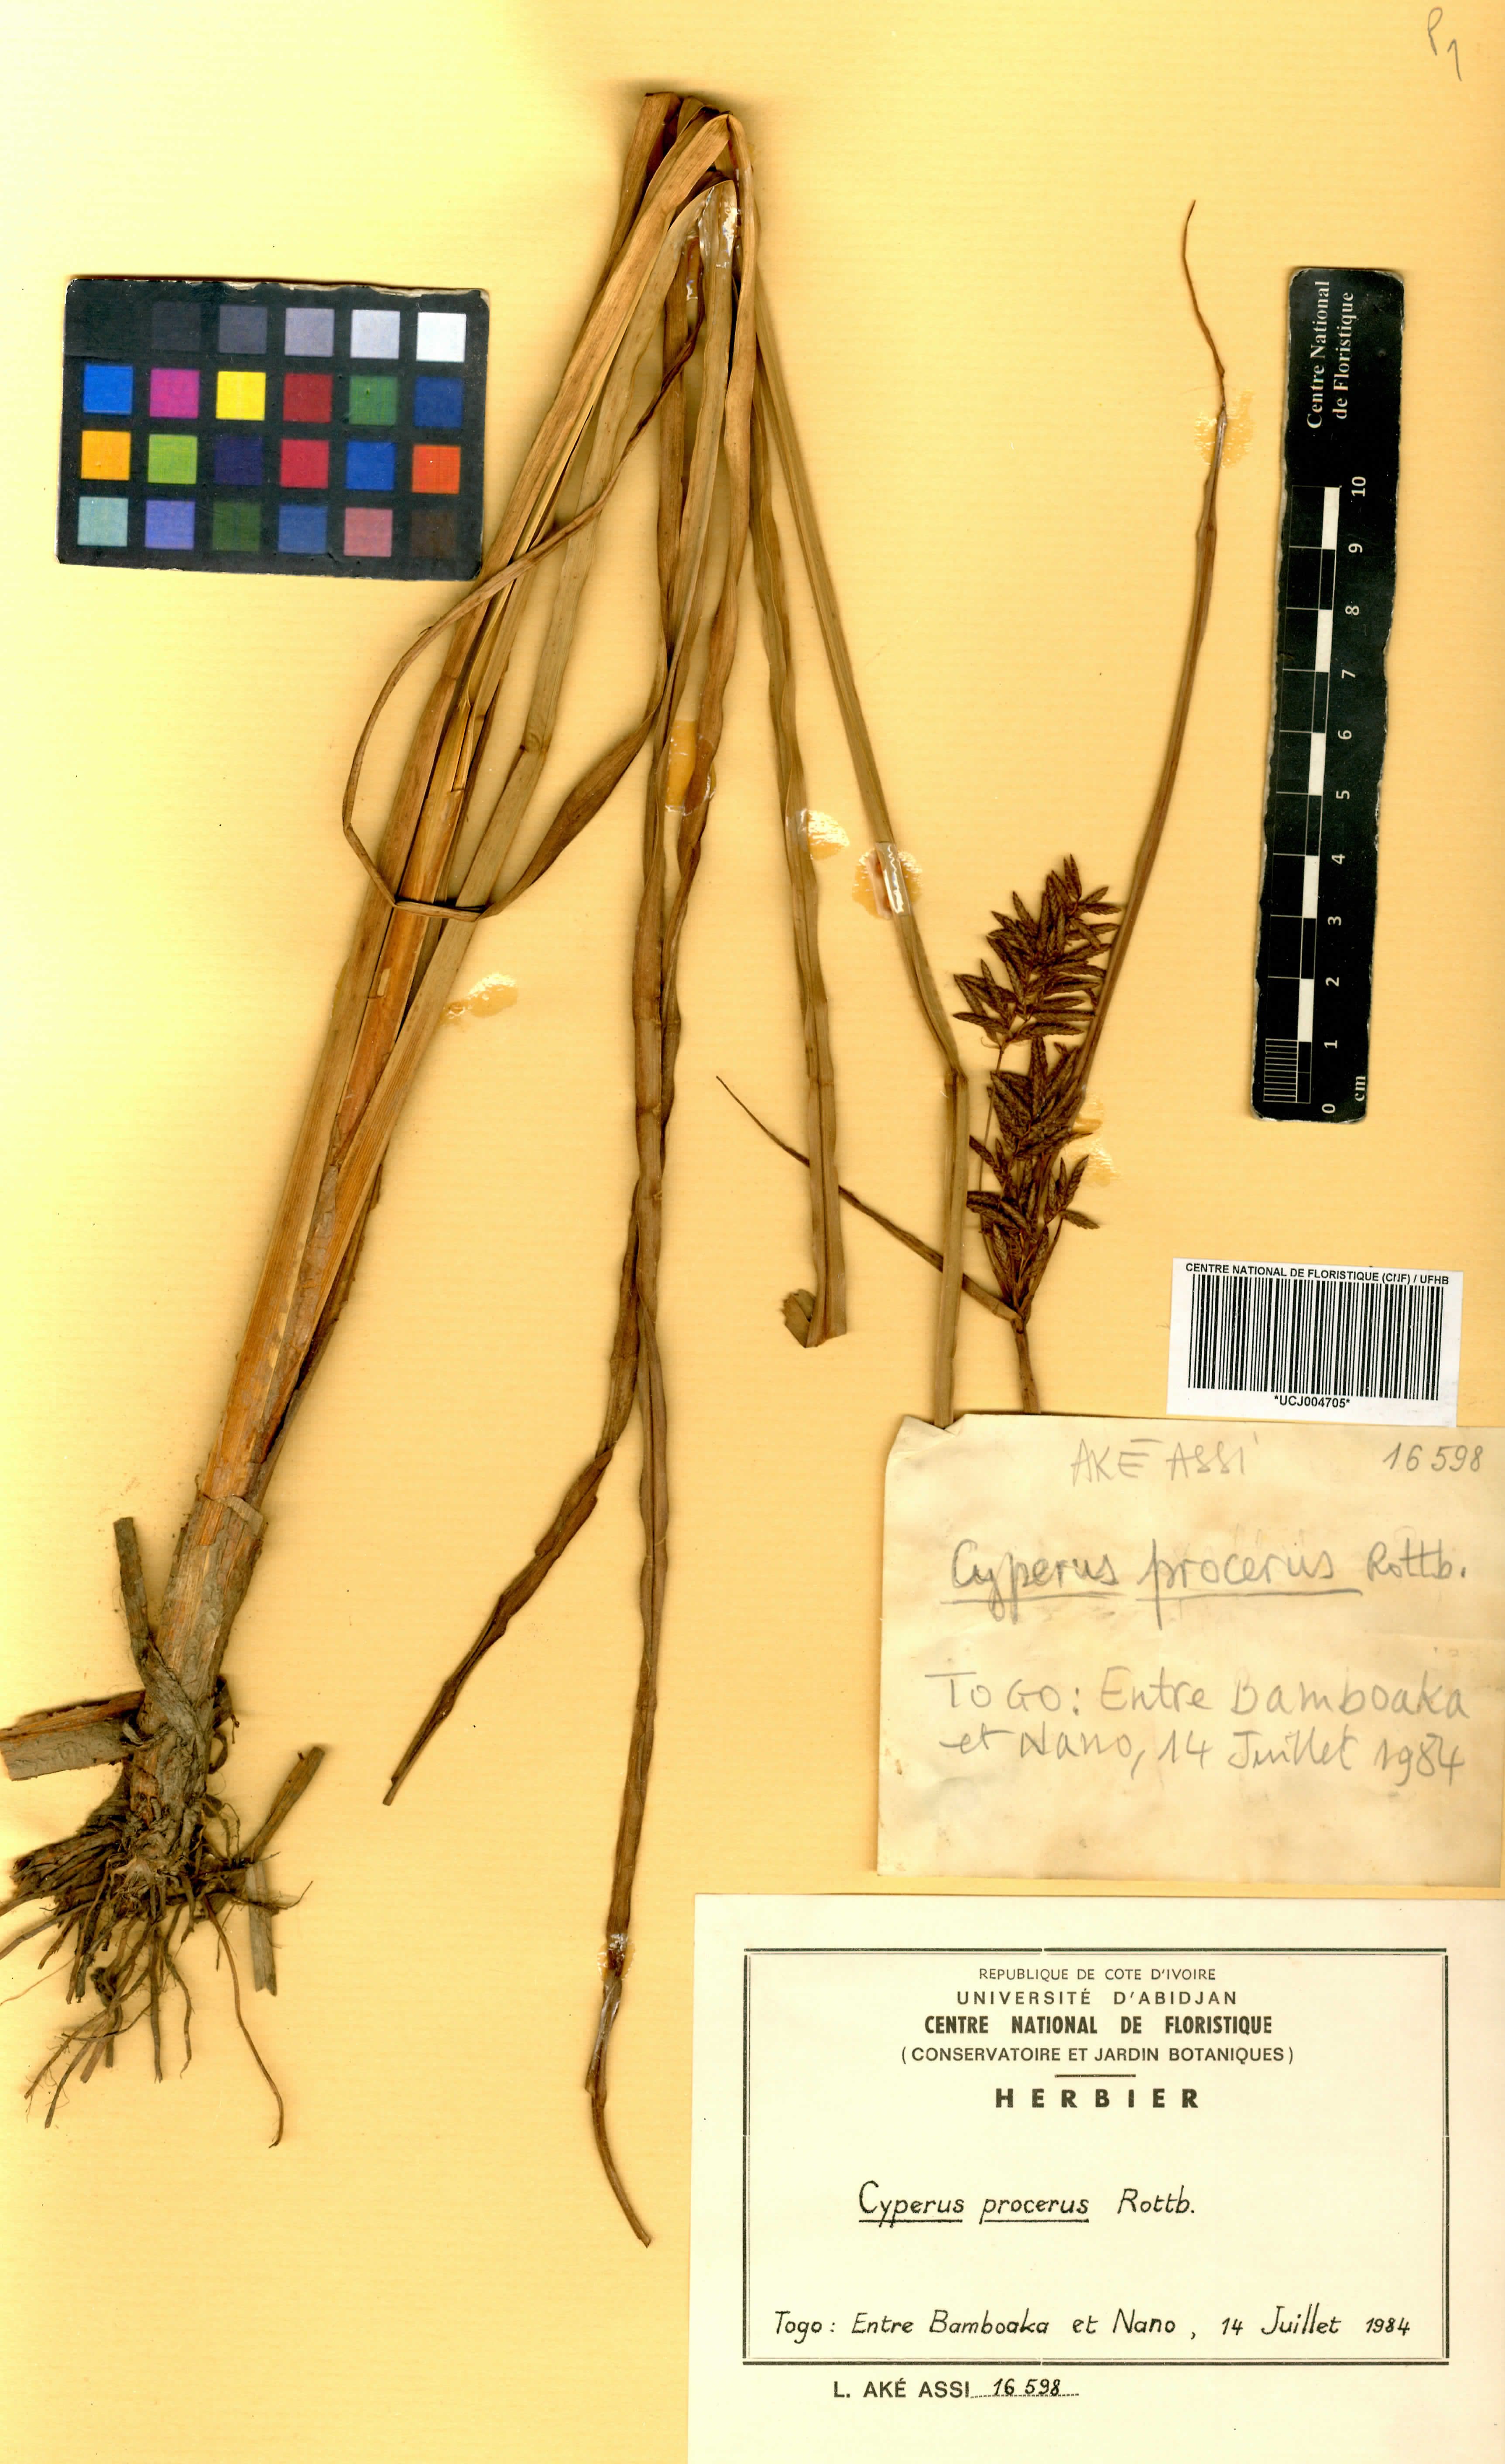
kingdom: Plantae
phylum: Tracheophyta
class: Liliopsida
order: Poales
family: Cyperaceae
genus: Cyperus
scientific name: Cyperus procerus
